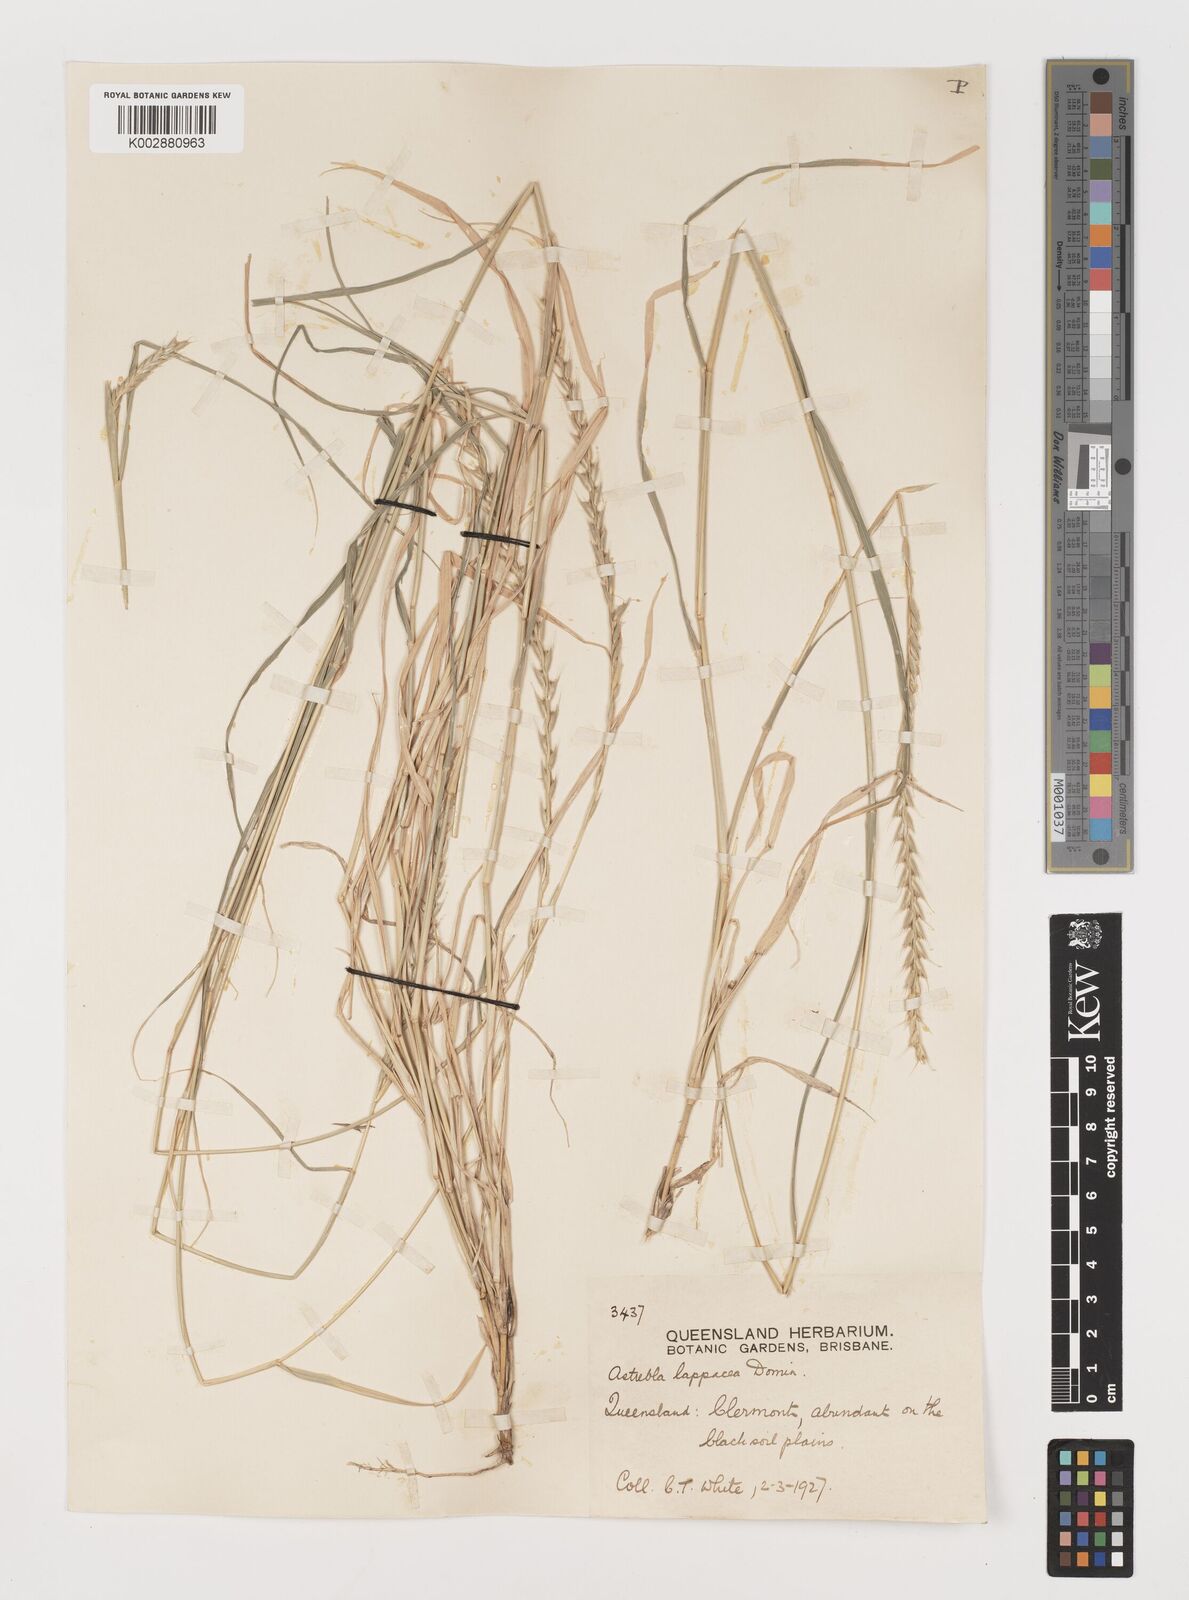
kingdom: Plantae
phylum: Tracheophyta
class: Liliopsida
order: Poales
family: Poaceae
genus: Astrebla
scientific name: Astrebla lappacea
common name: Curly mitchell grass
